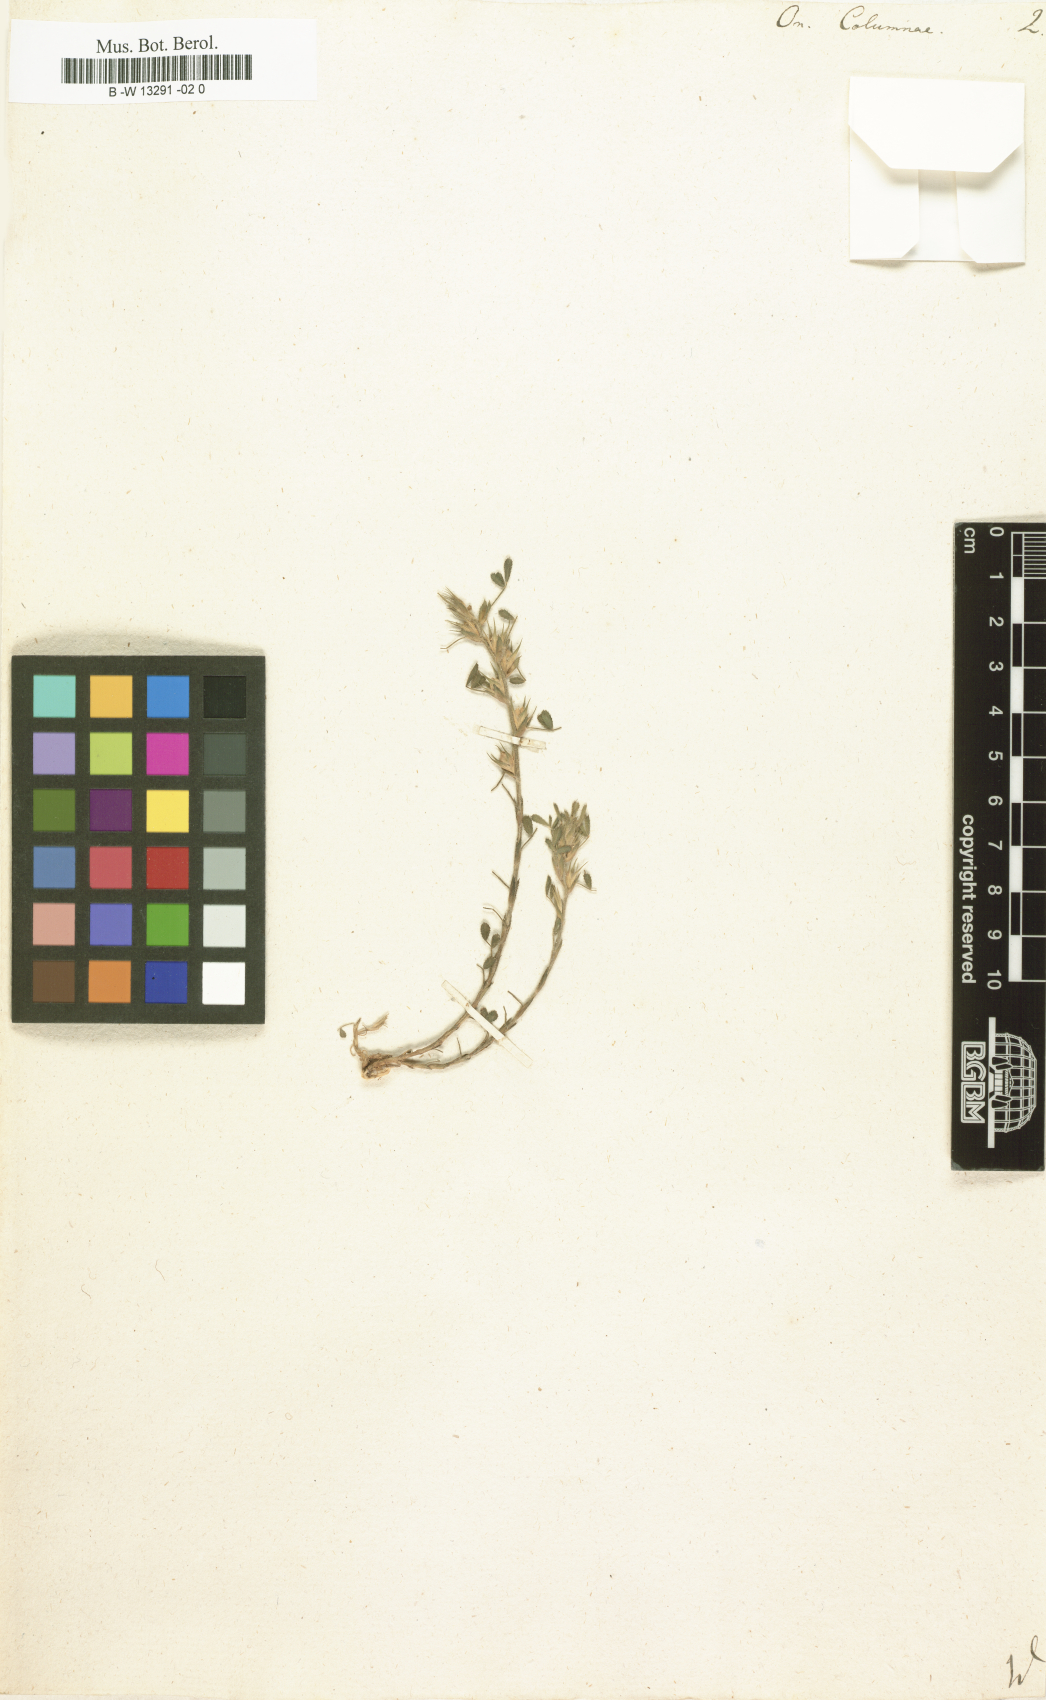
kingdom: Plantae
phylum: Tracheophyta
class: Magnoliopsida
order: Fabales
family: Fabaceae
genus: Ononis
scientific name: Ononis pusilla
